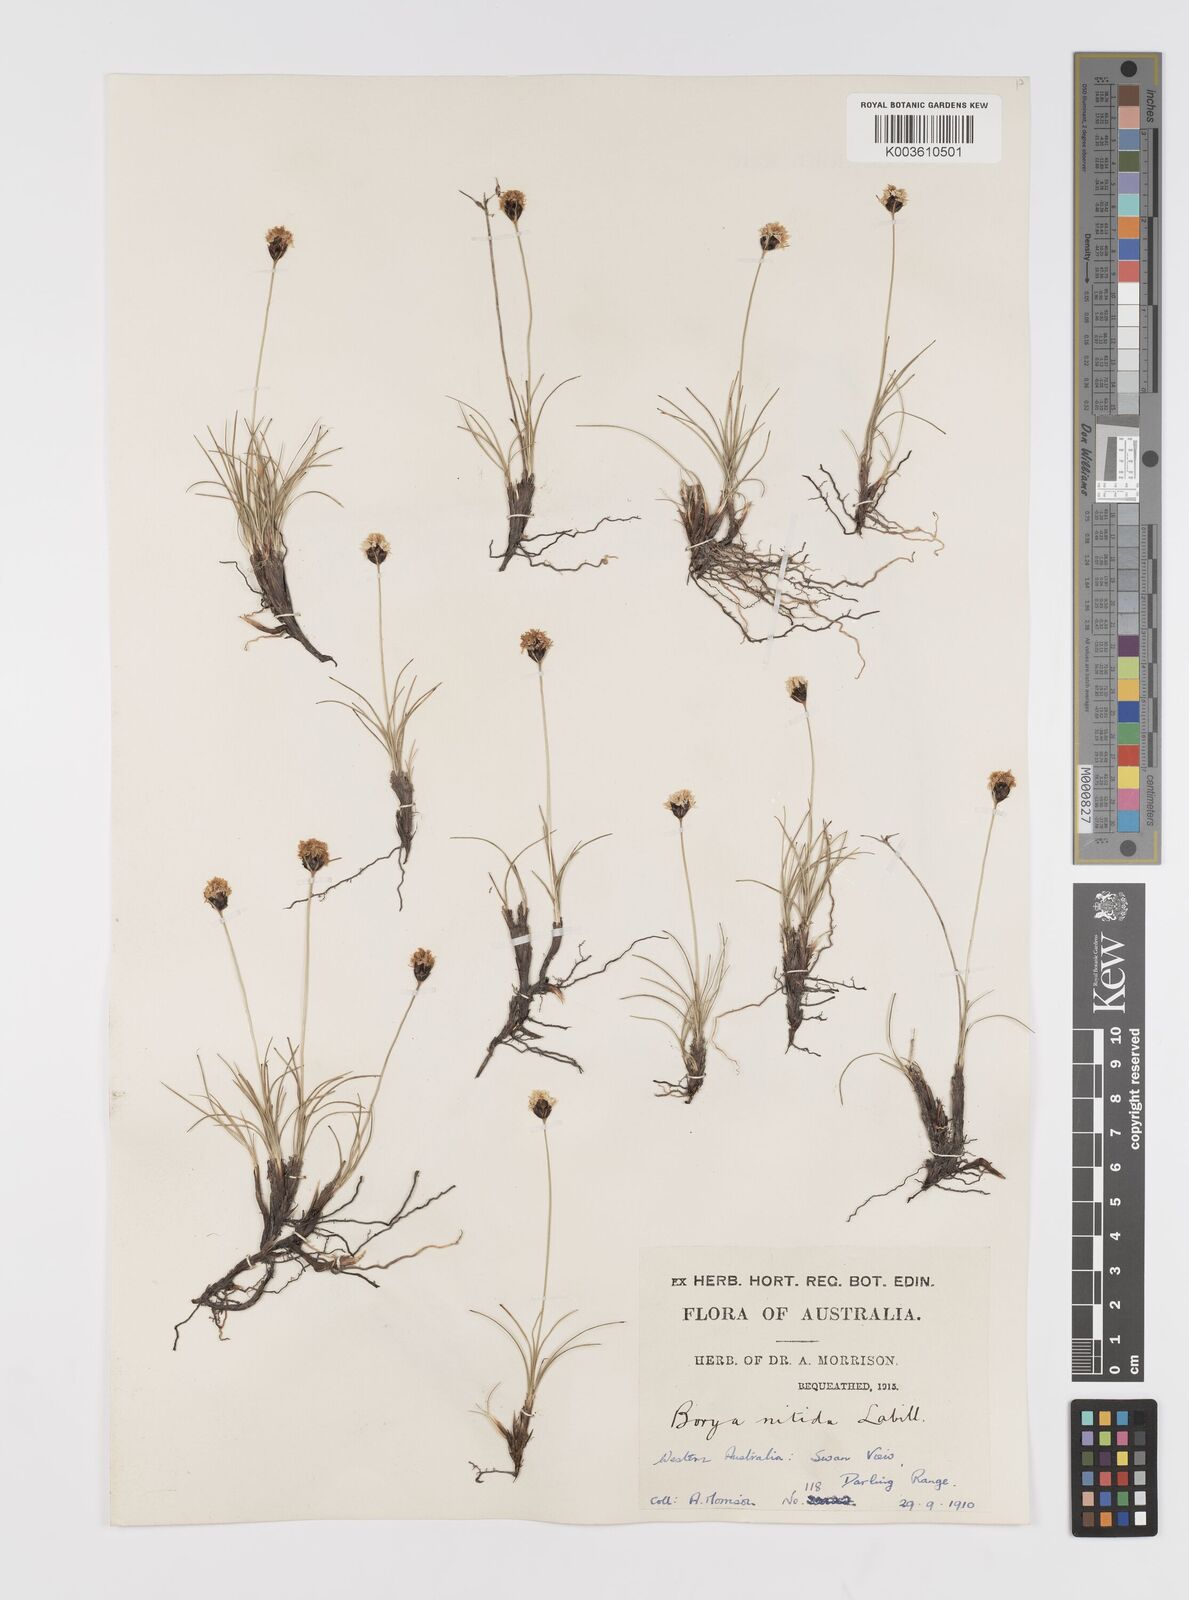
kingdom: Plantae
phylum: Tracheophyta
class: Liliopsida
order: Asparagales
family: Boryaceae
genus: Borya
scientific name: Borya nitida
